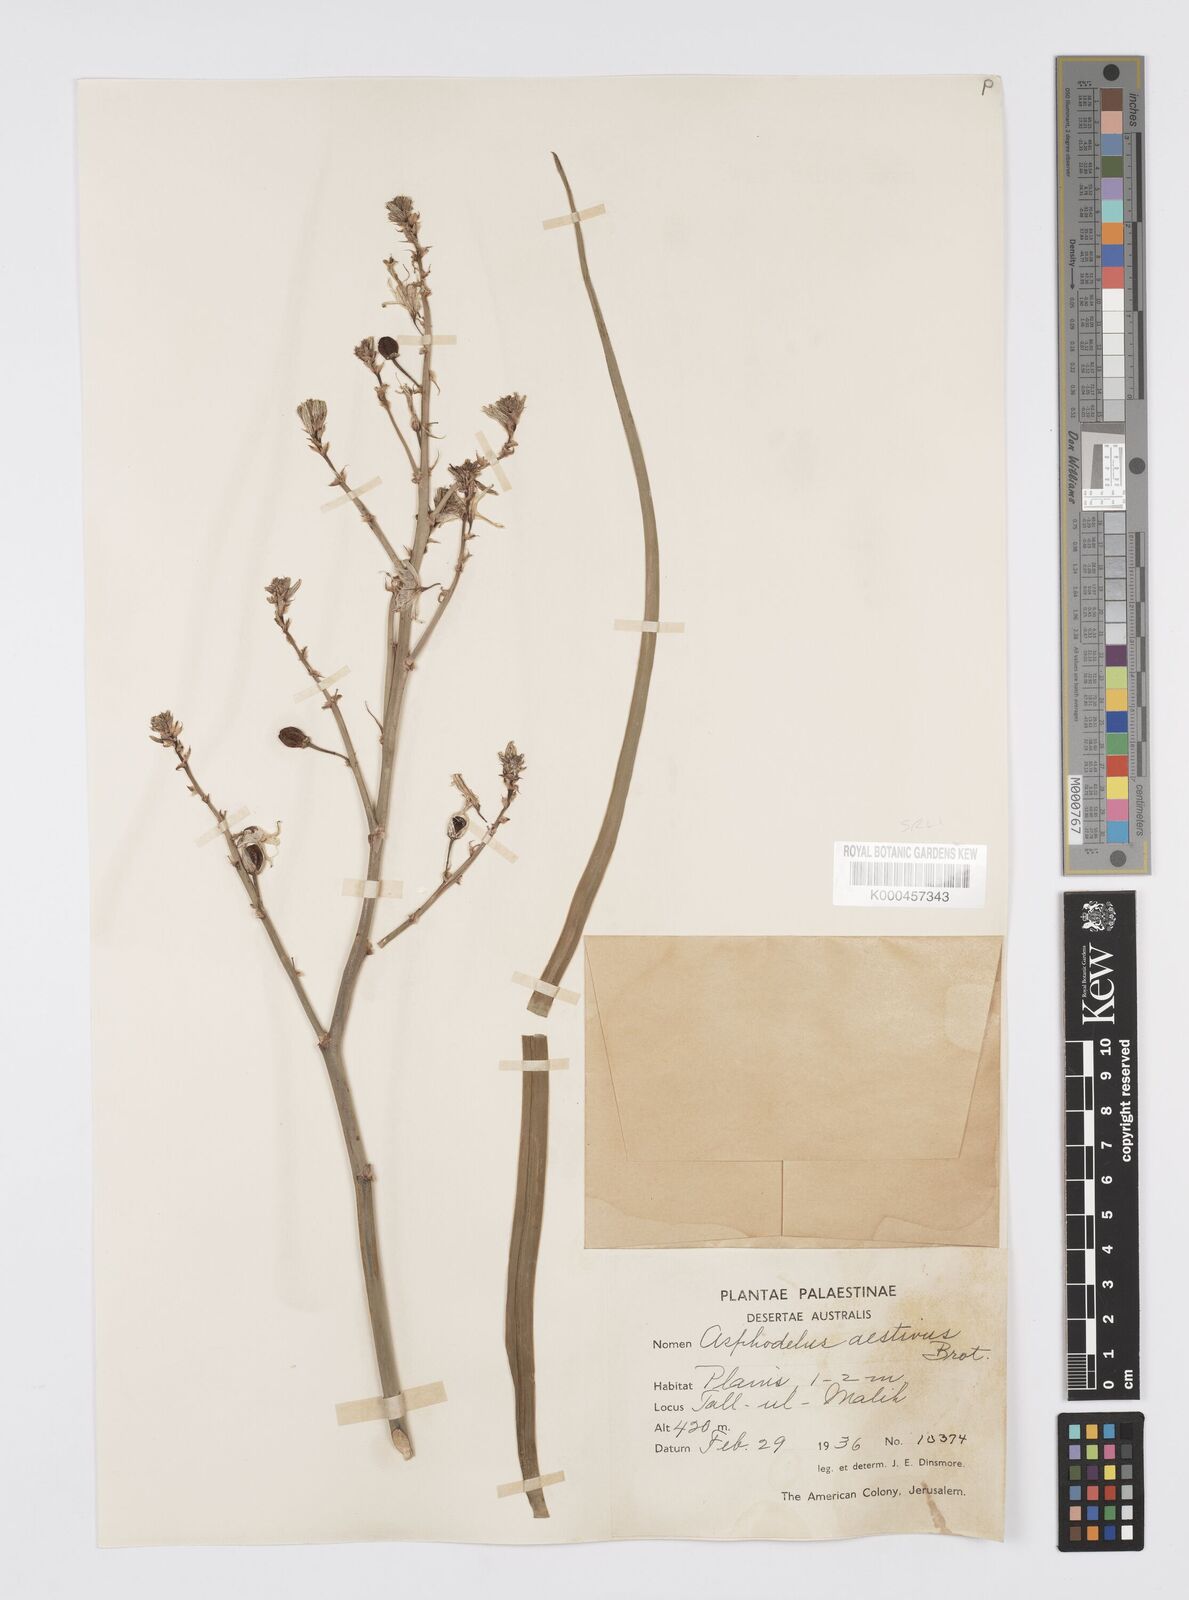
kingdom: Plantae
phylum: Tracheophyta
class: Liliopsida
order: Asparagales
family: Asphodelaceae
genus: Asphodelus
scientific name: Asphodelus aestivus
